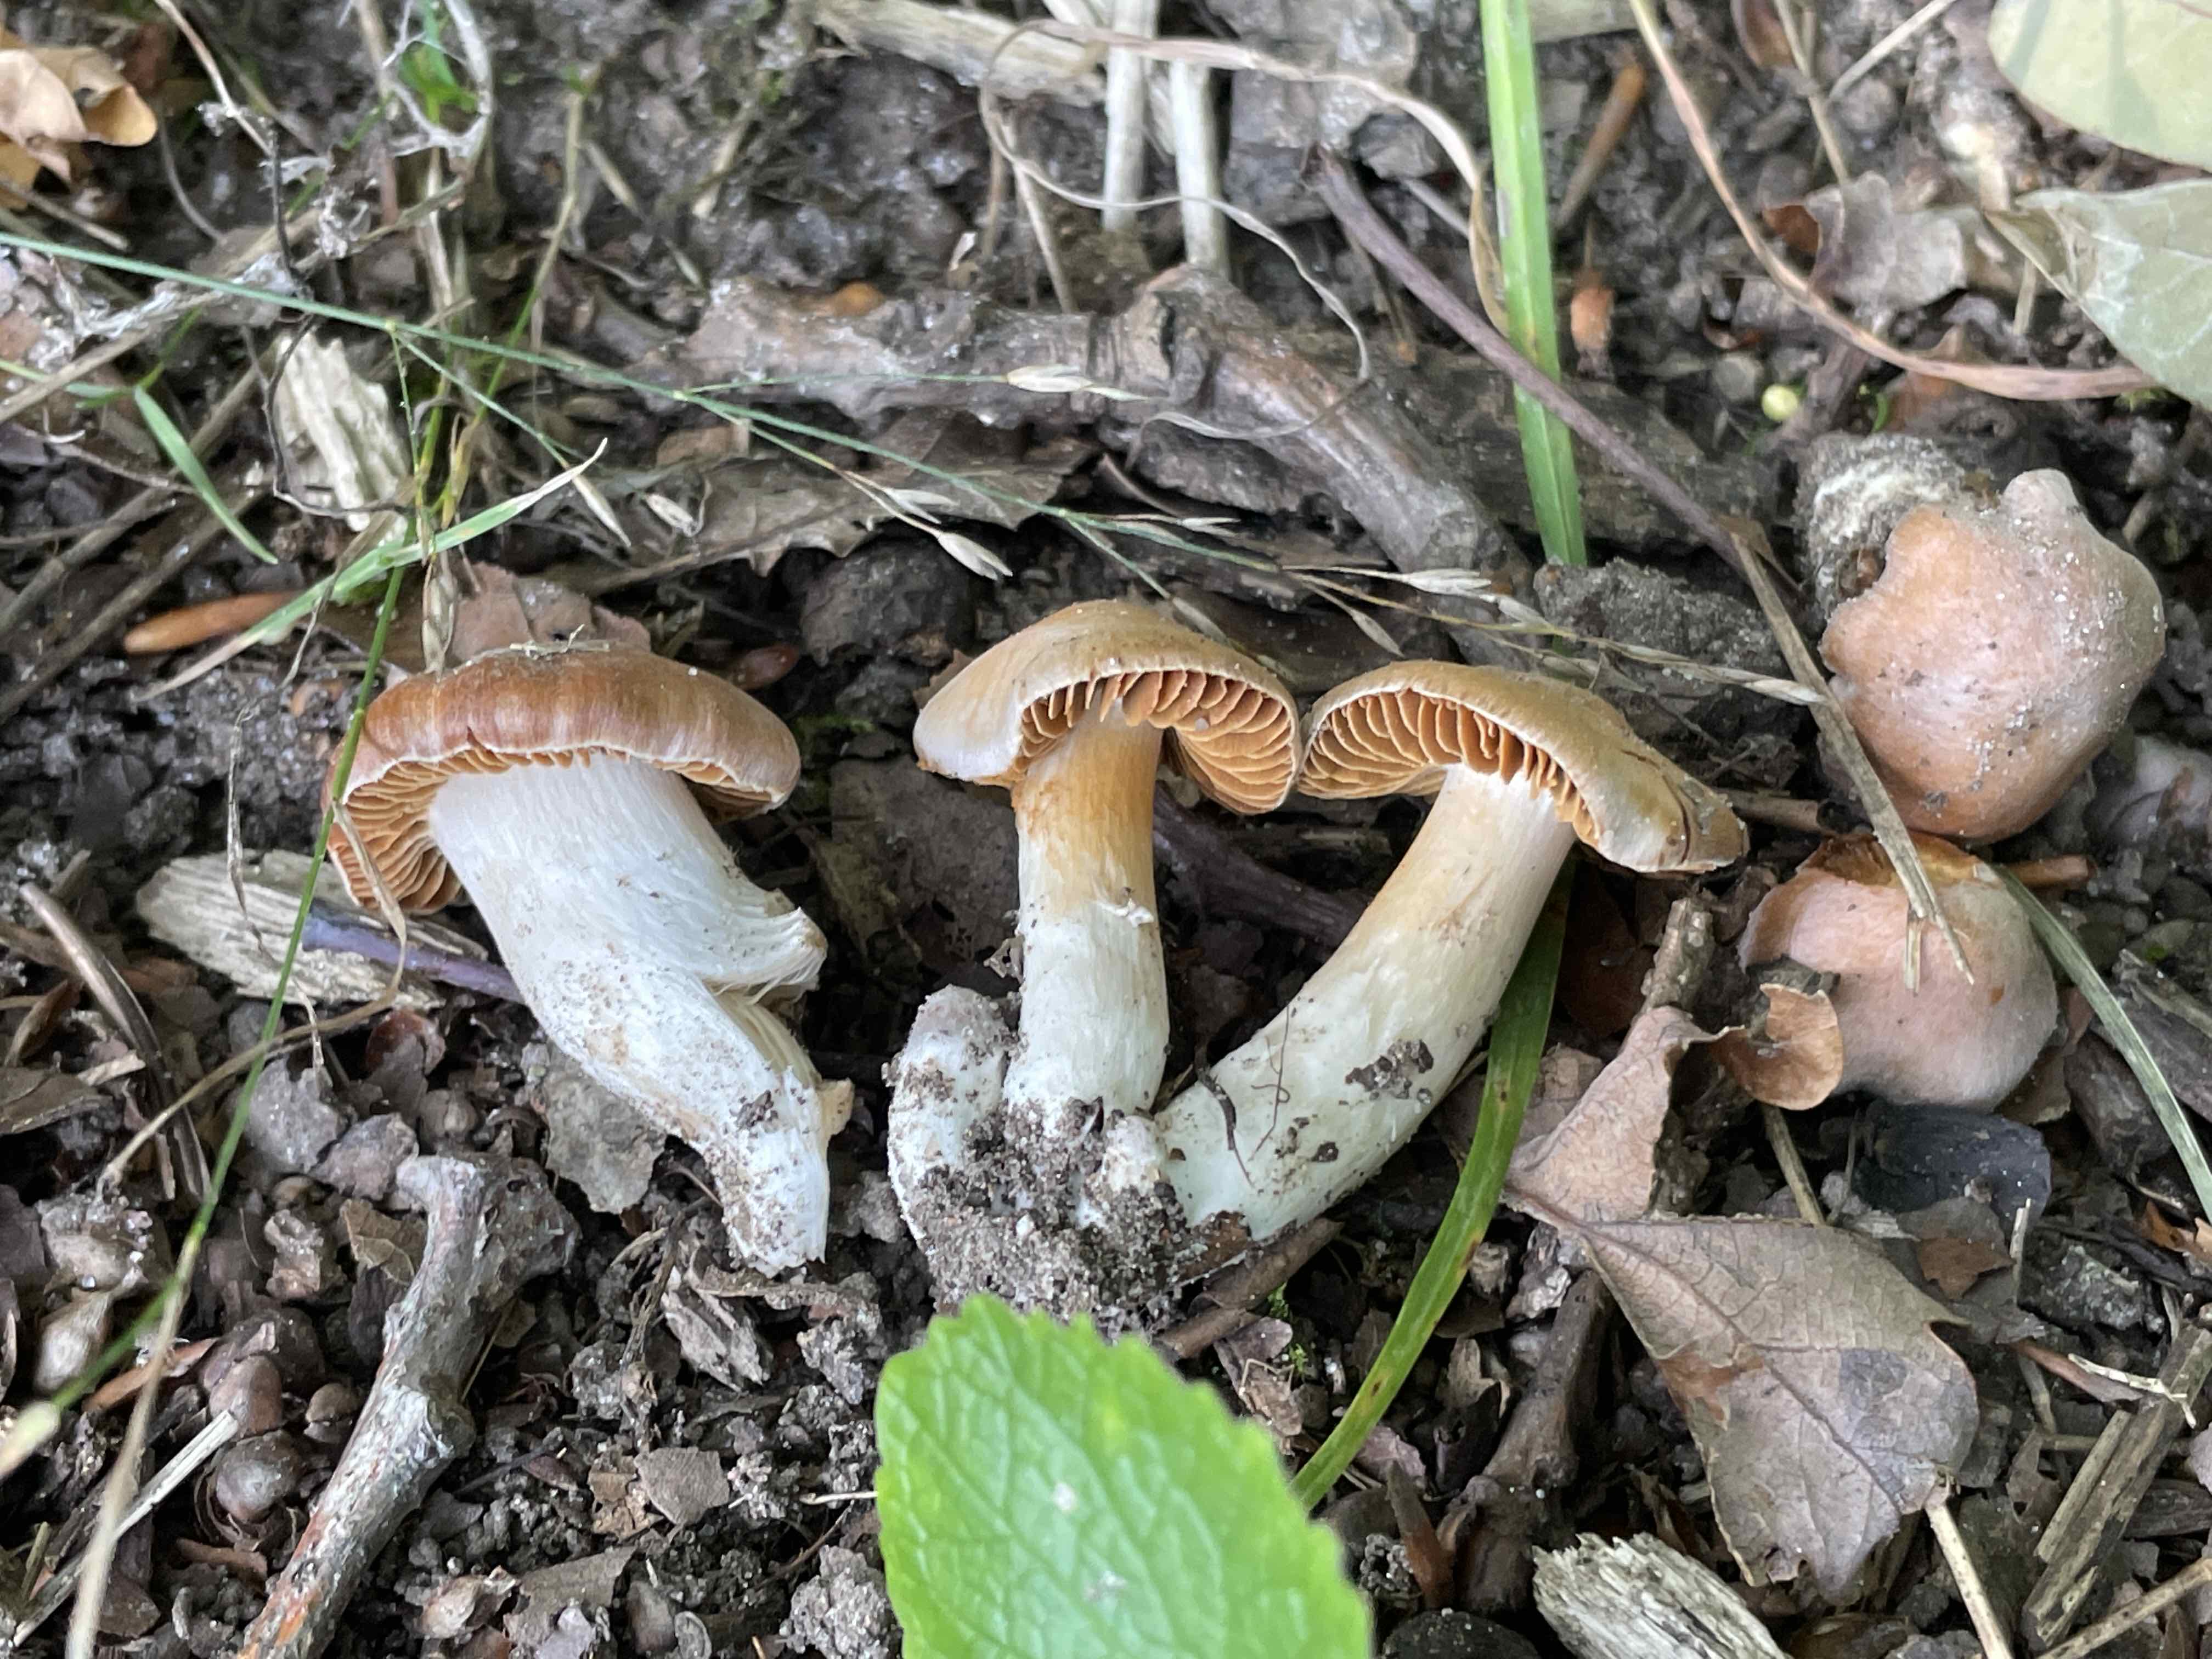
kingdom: Fungi
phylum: Basidiomycota
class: Agaricomycetes
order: Agaricales
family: Cortinariaceae
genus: Cortinarius
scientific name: Cortinarius
